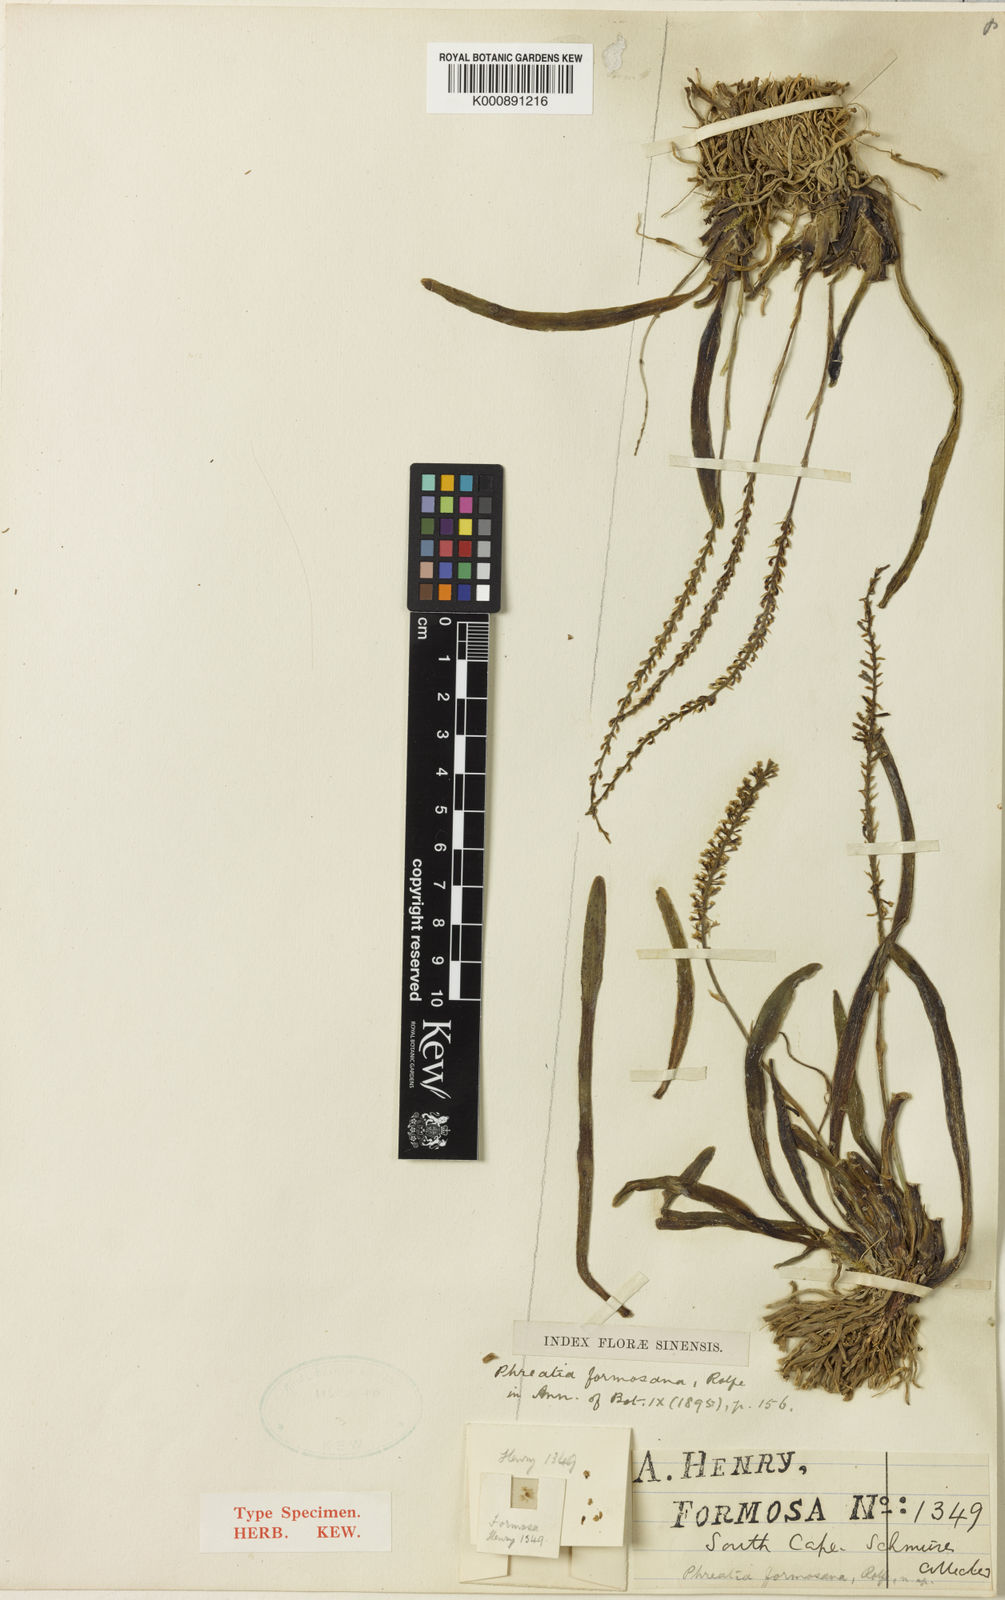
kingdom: Plantae
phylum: Tracheophyta
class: Liliopsida
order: Asparagales
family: Orchidaceae
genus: Phreatia
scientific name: Phreatia
